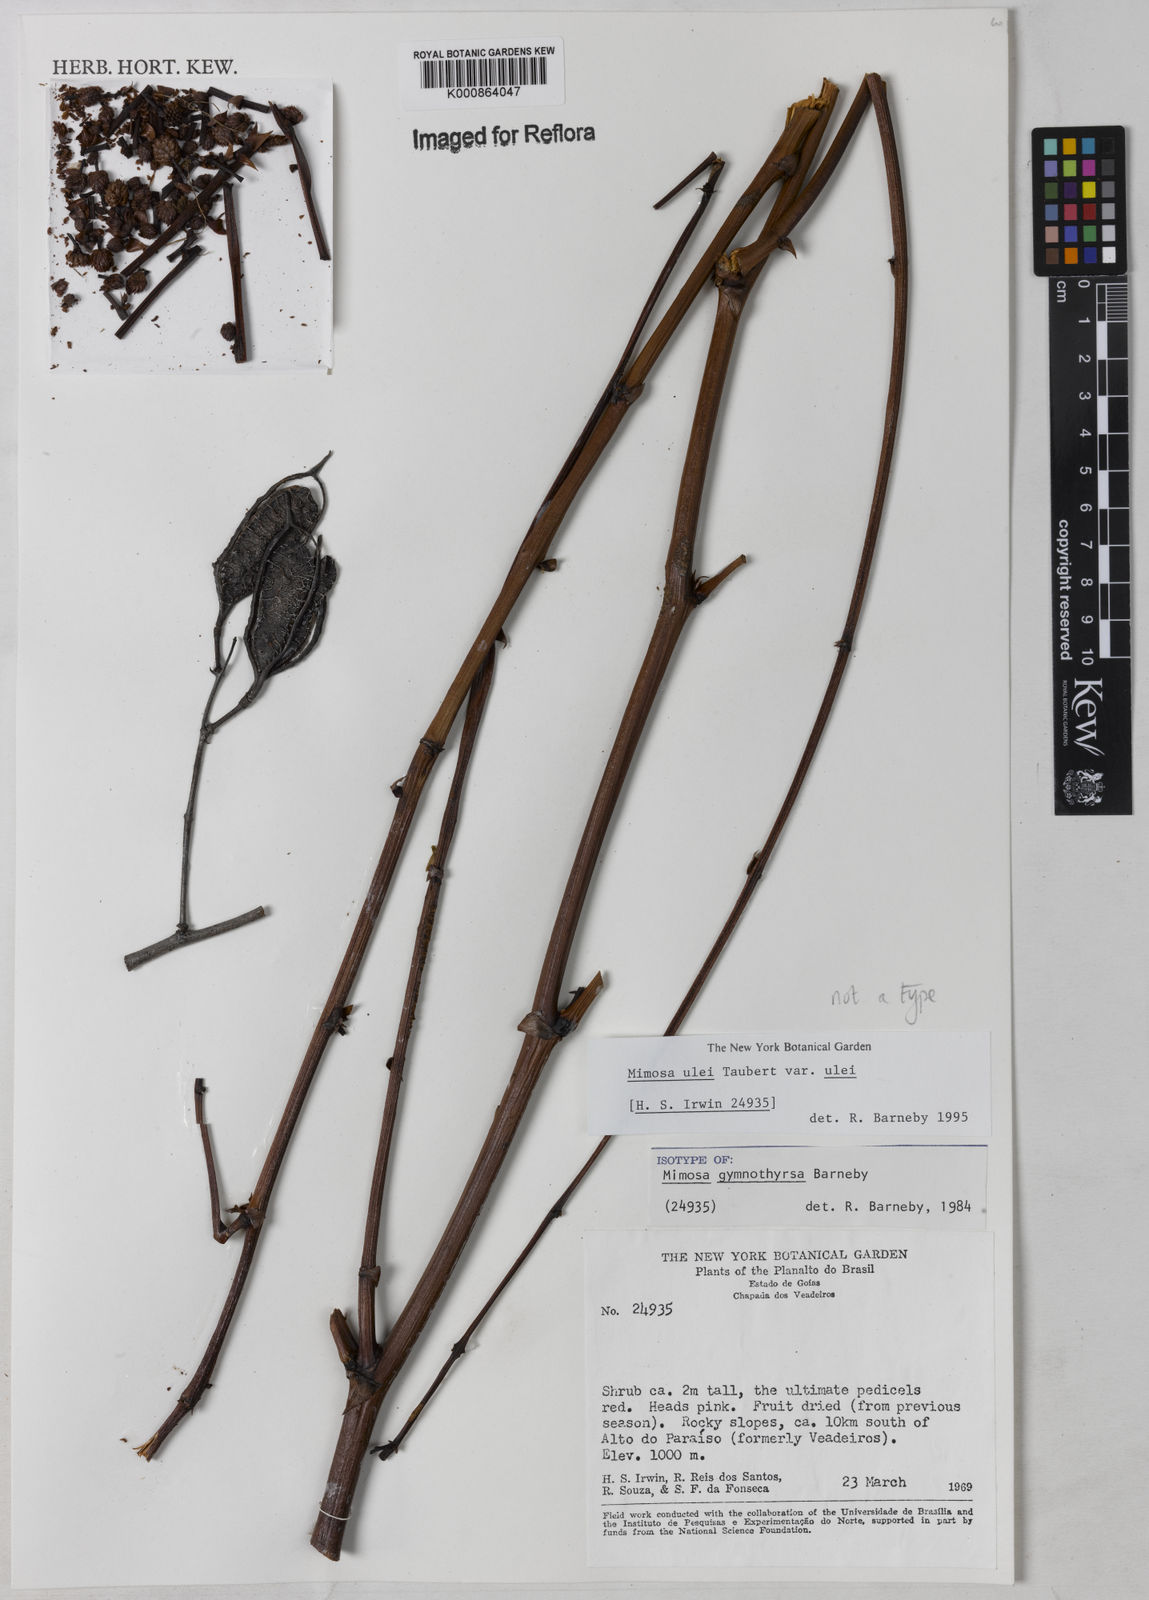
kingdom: Plantae
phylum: Tracheophyta
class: Magnoliopsida
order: Fabales
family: Fabaceae
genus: Mimosa
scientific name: Mimosa ulei
